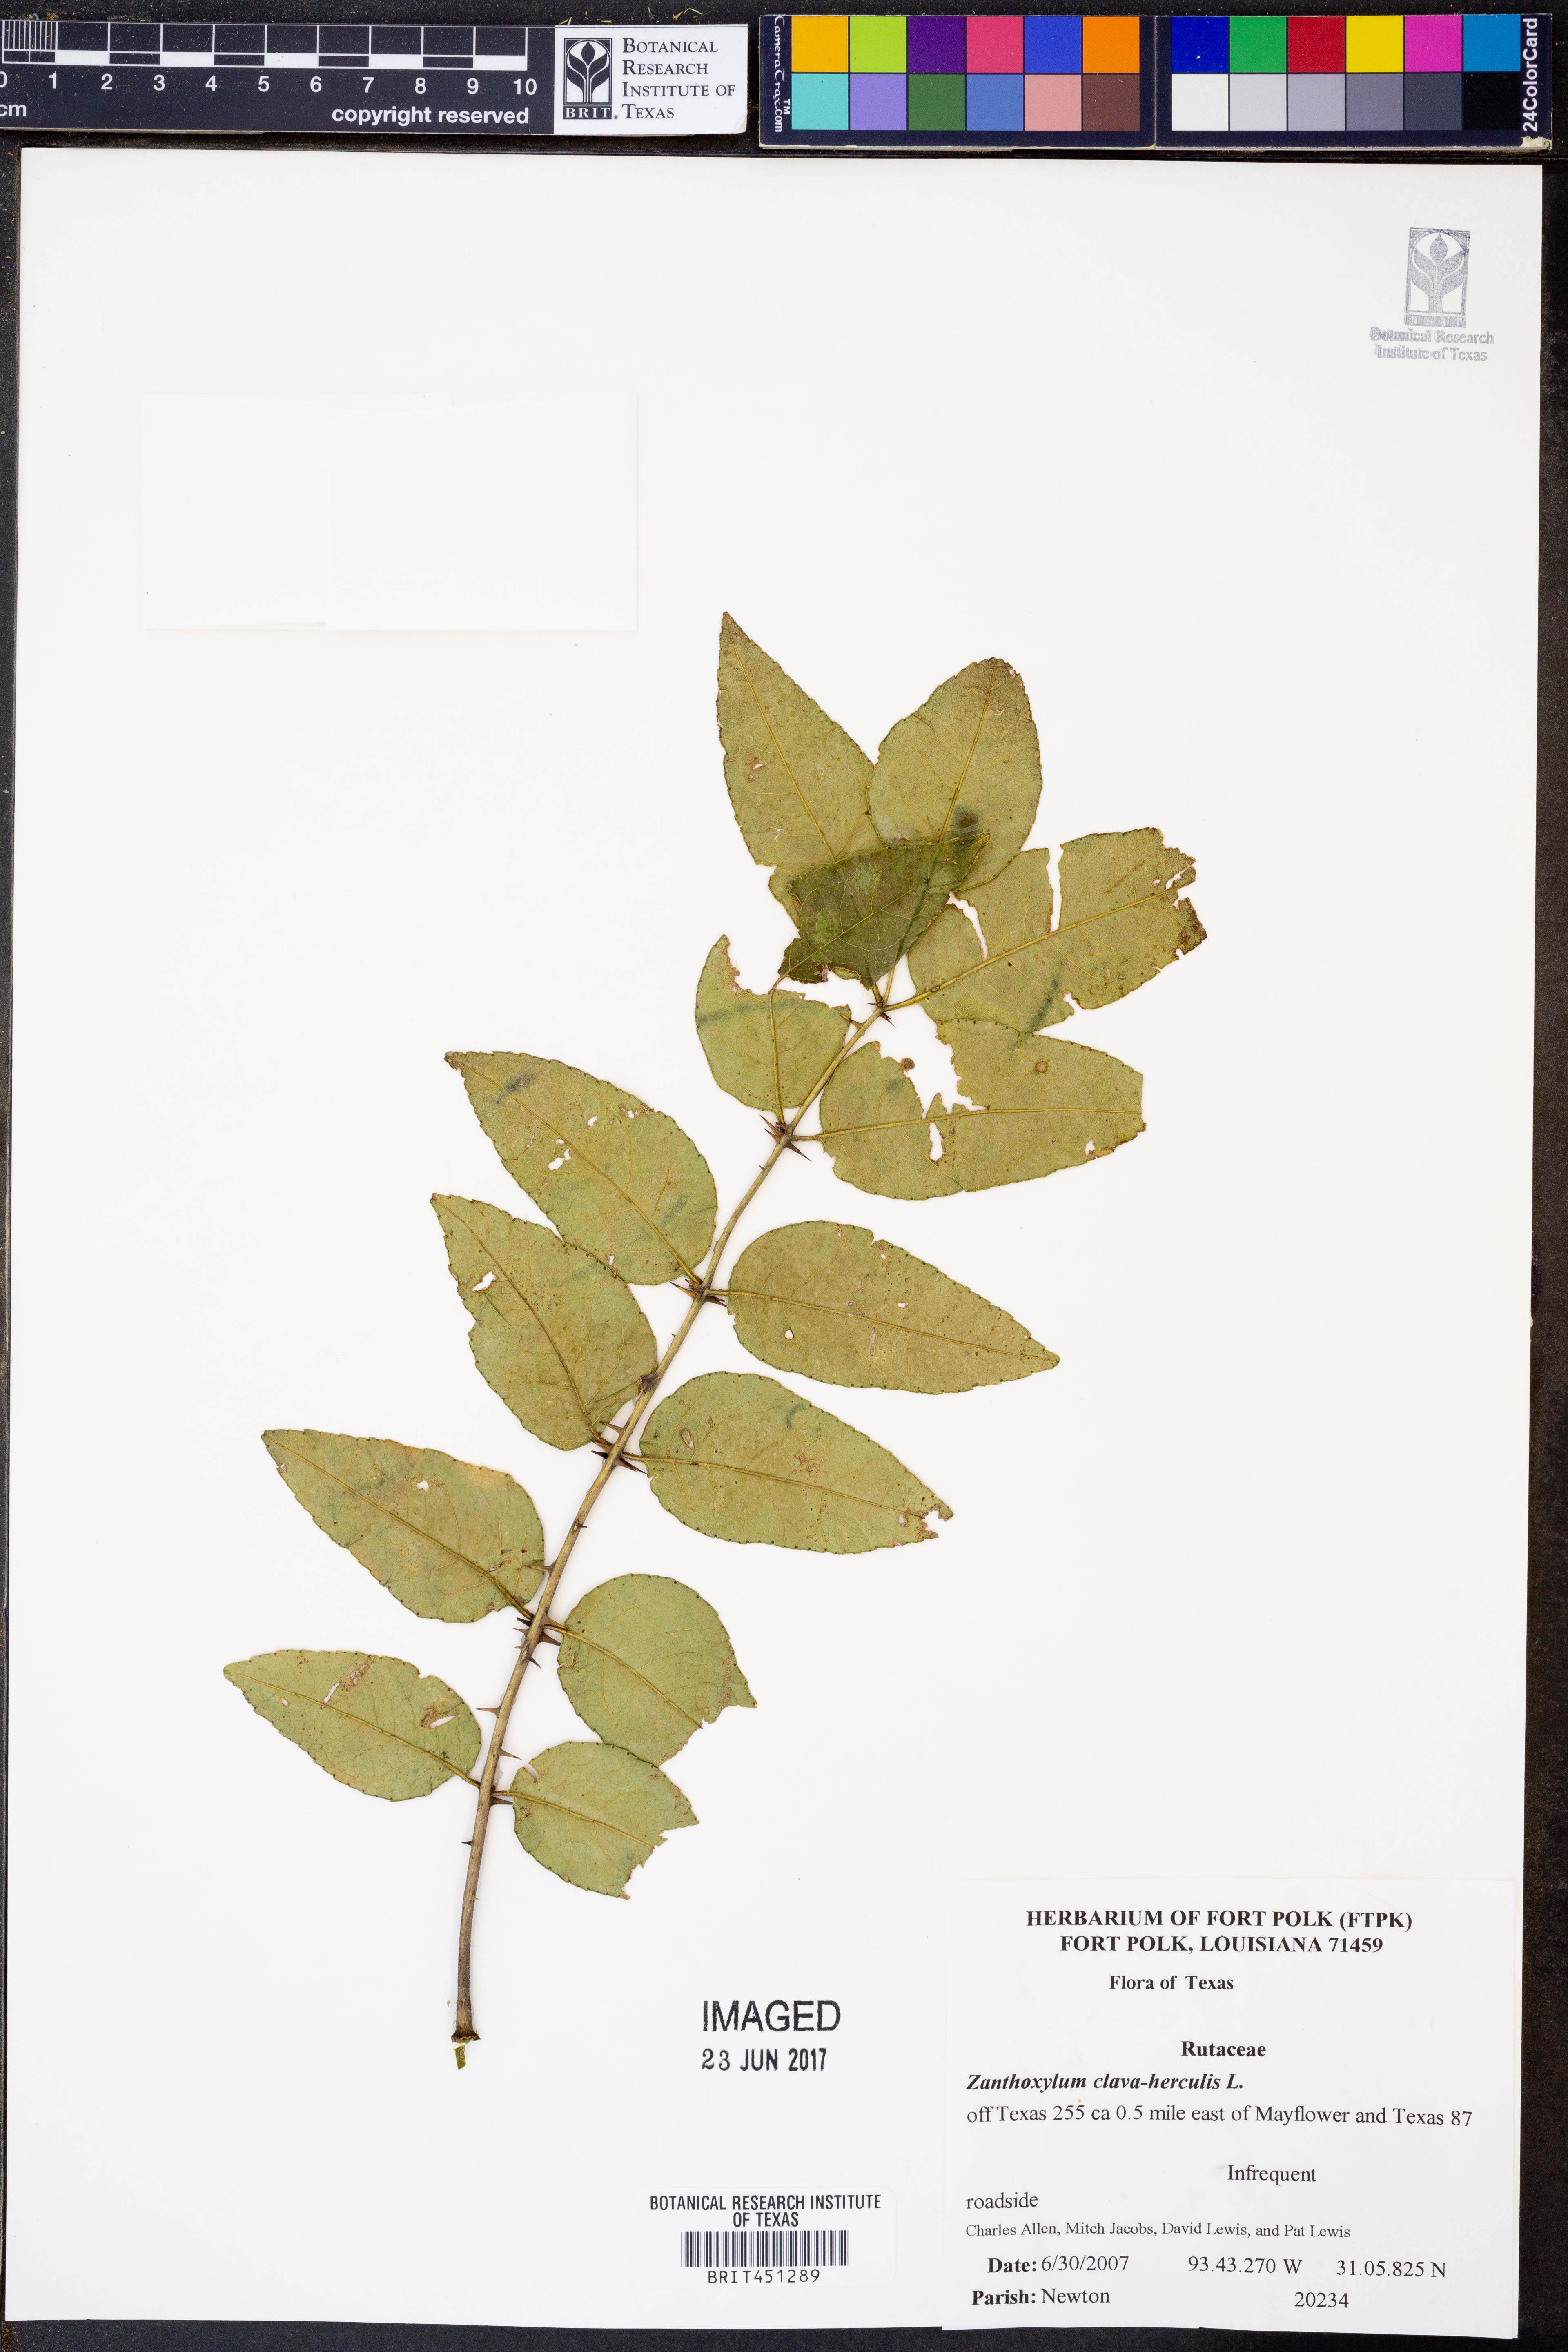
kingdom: Plantae
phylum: Tracheophyta
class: Magnoliopsida
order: Sapindales
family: Rutaceae
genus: Zanthoxylum
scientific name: Zanthoxylum avicennae
